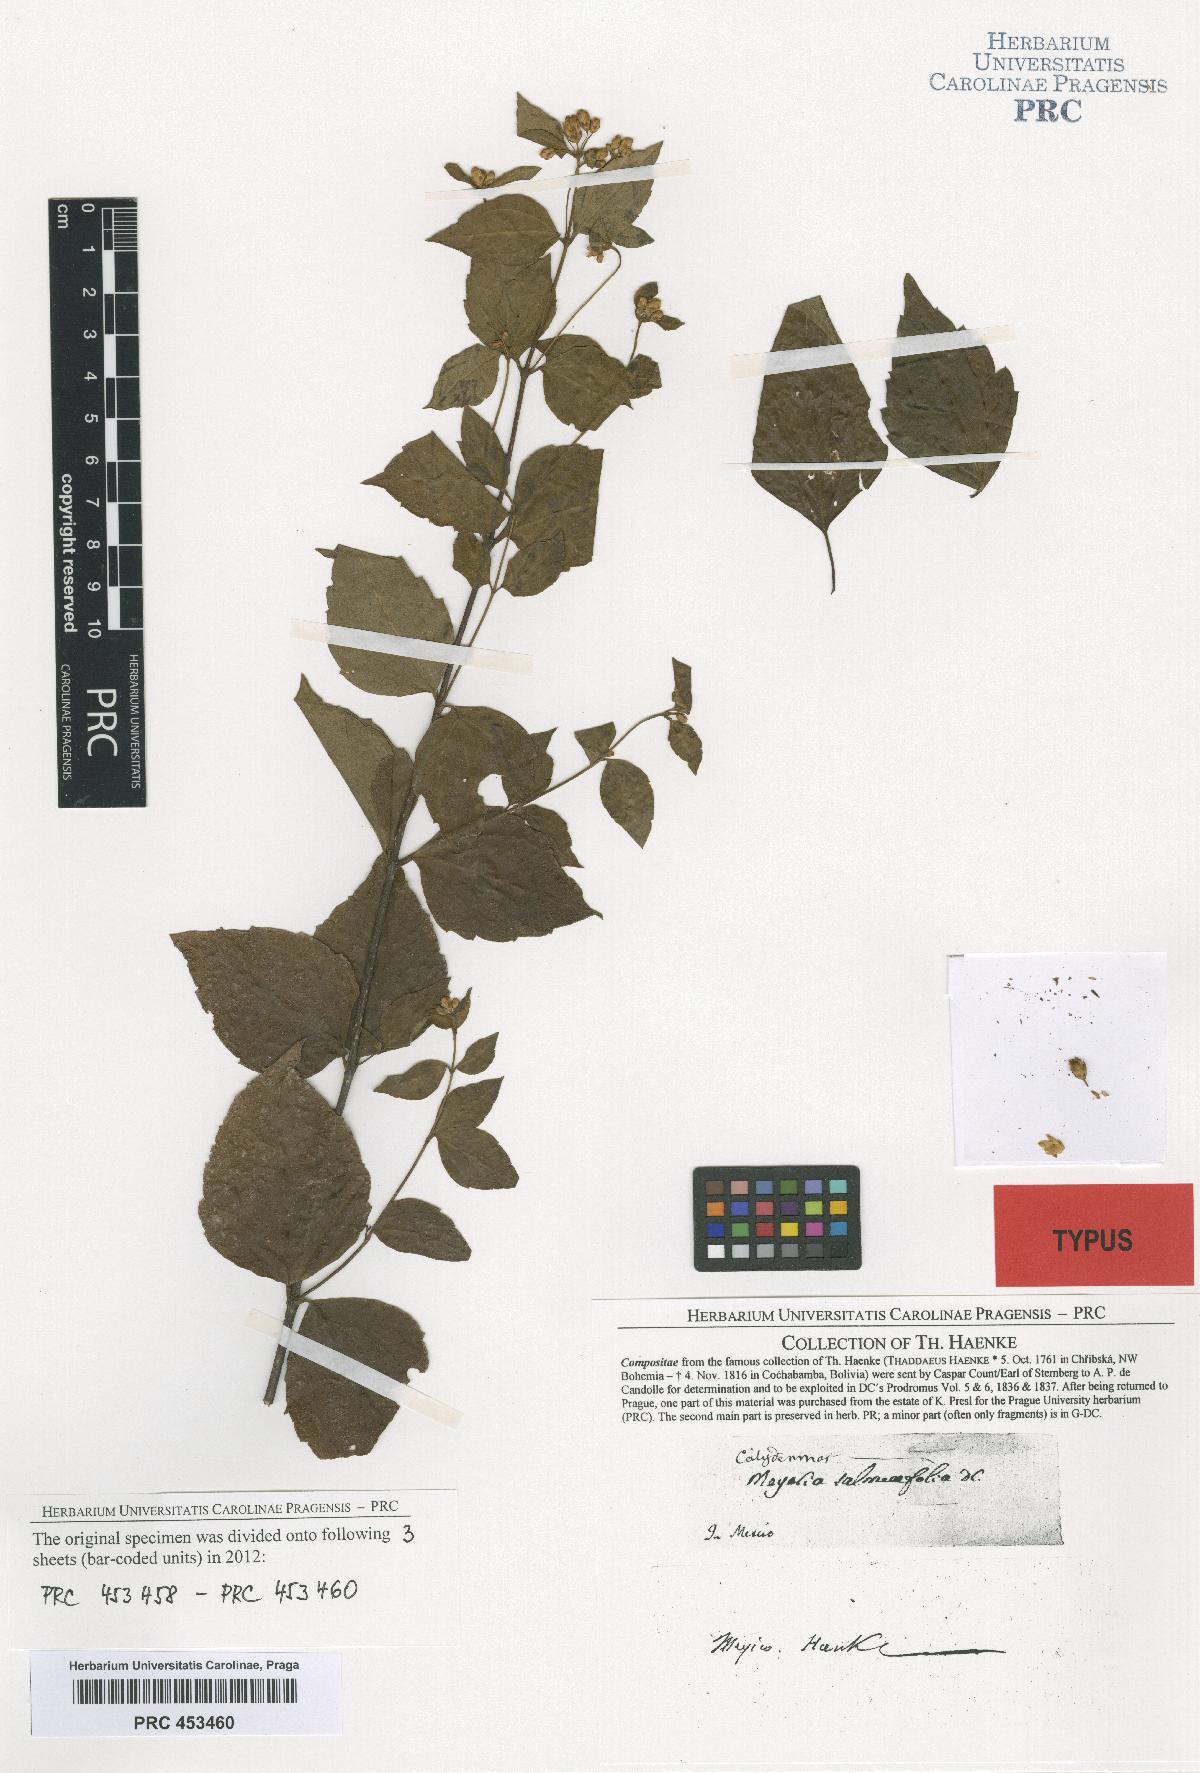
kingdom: Plantae
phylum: Tracheophyta
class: Magnoliopsida
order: Asterales
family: Asteraceae
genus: Calea
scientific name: Calea ternifolia
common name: Mexican calea
